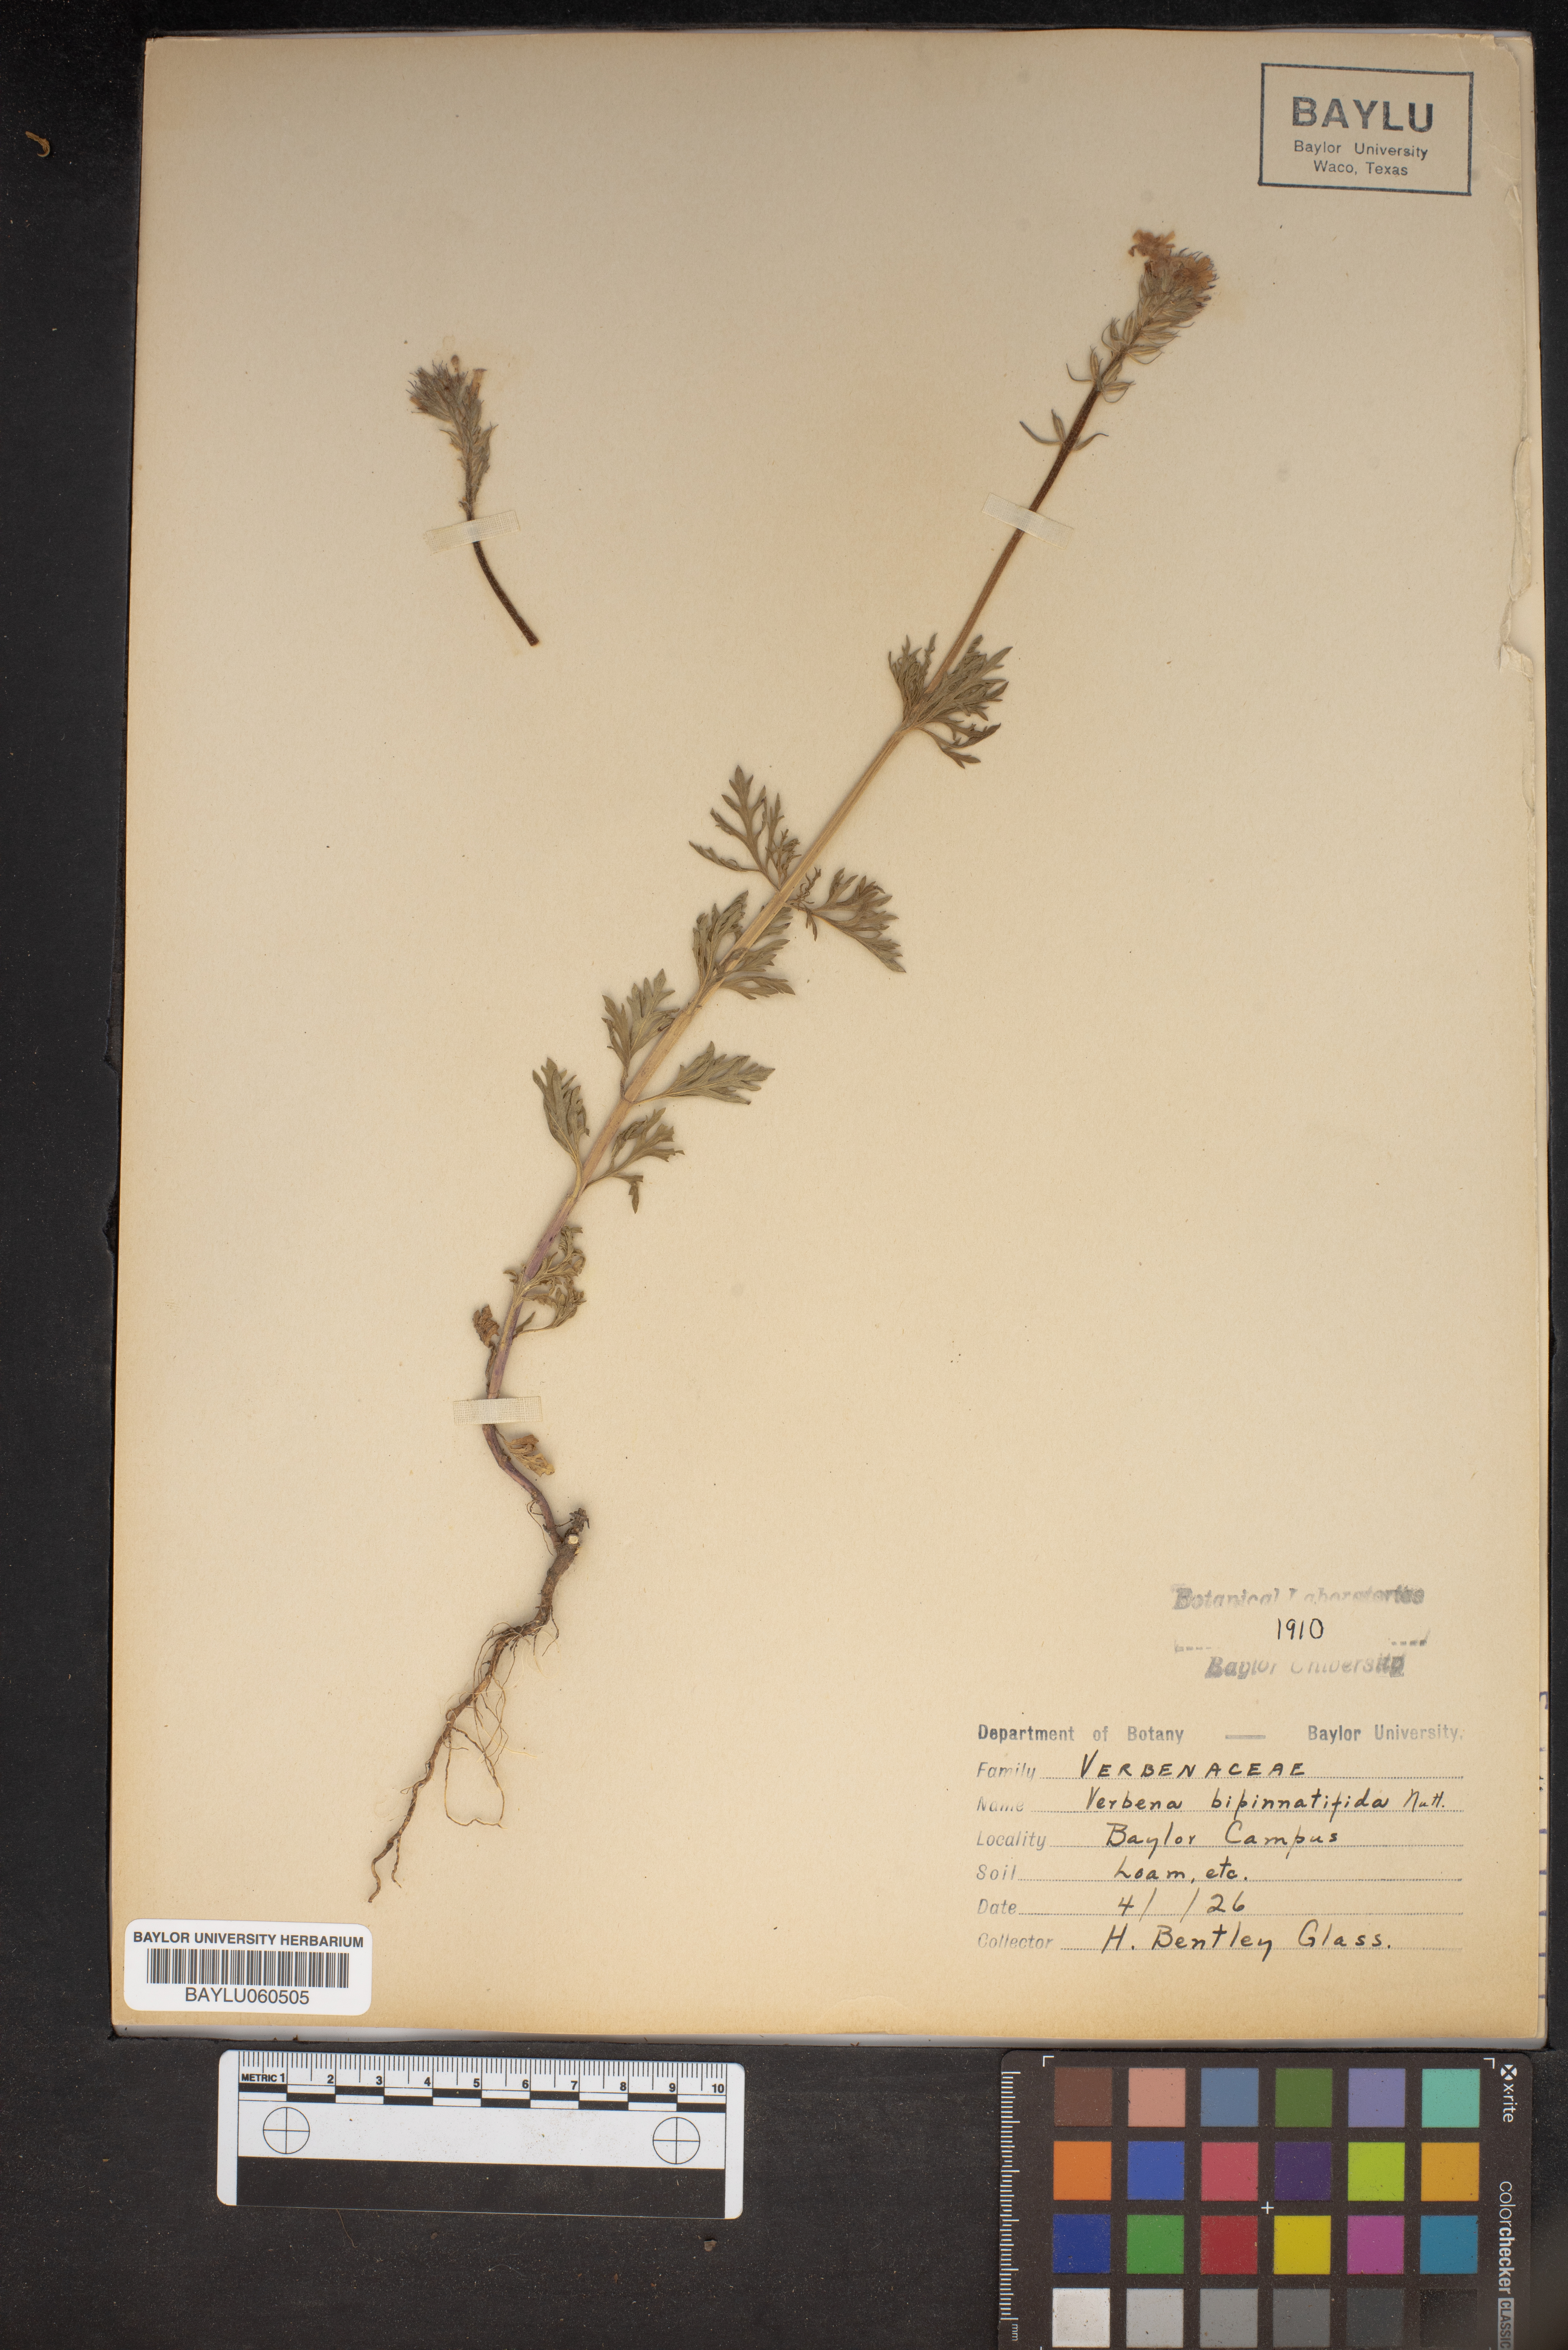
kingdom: Plantae
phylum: Tracheophyta
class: Magnoliopsida
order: Lamiales
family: Verbenaceae
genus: Verbena
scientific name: Verbena bipinnatifida
